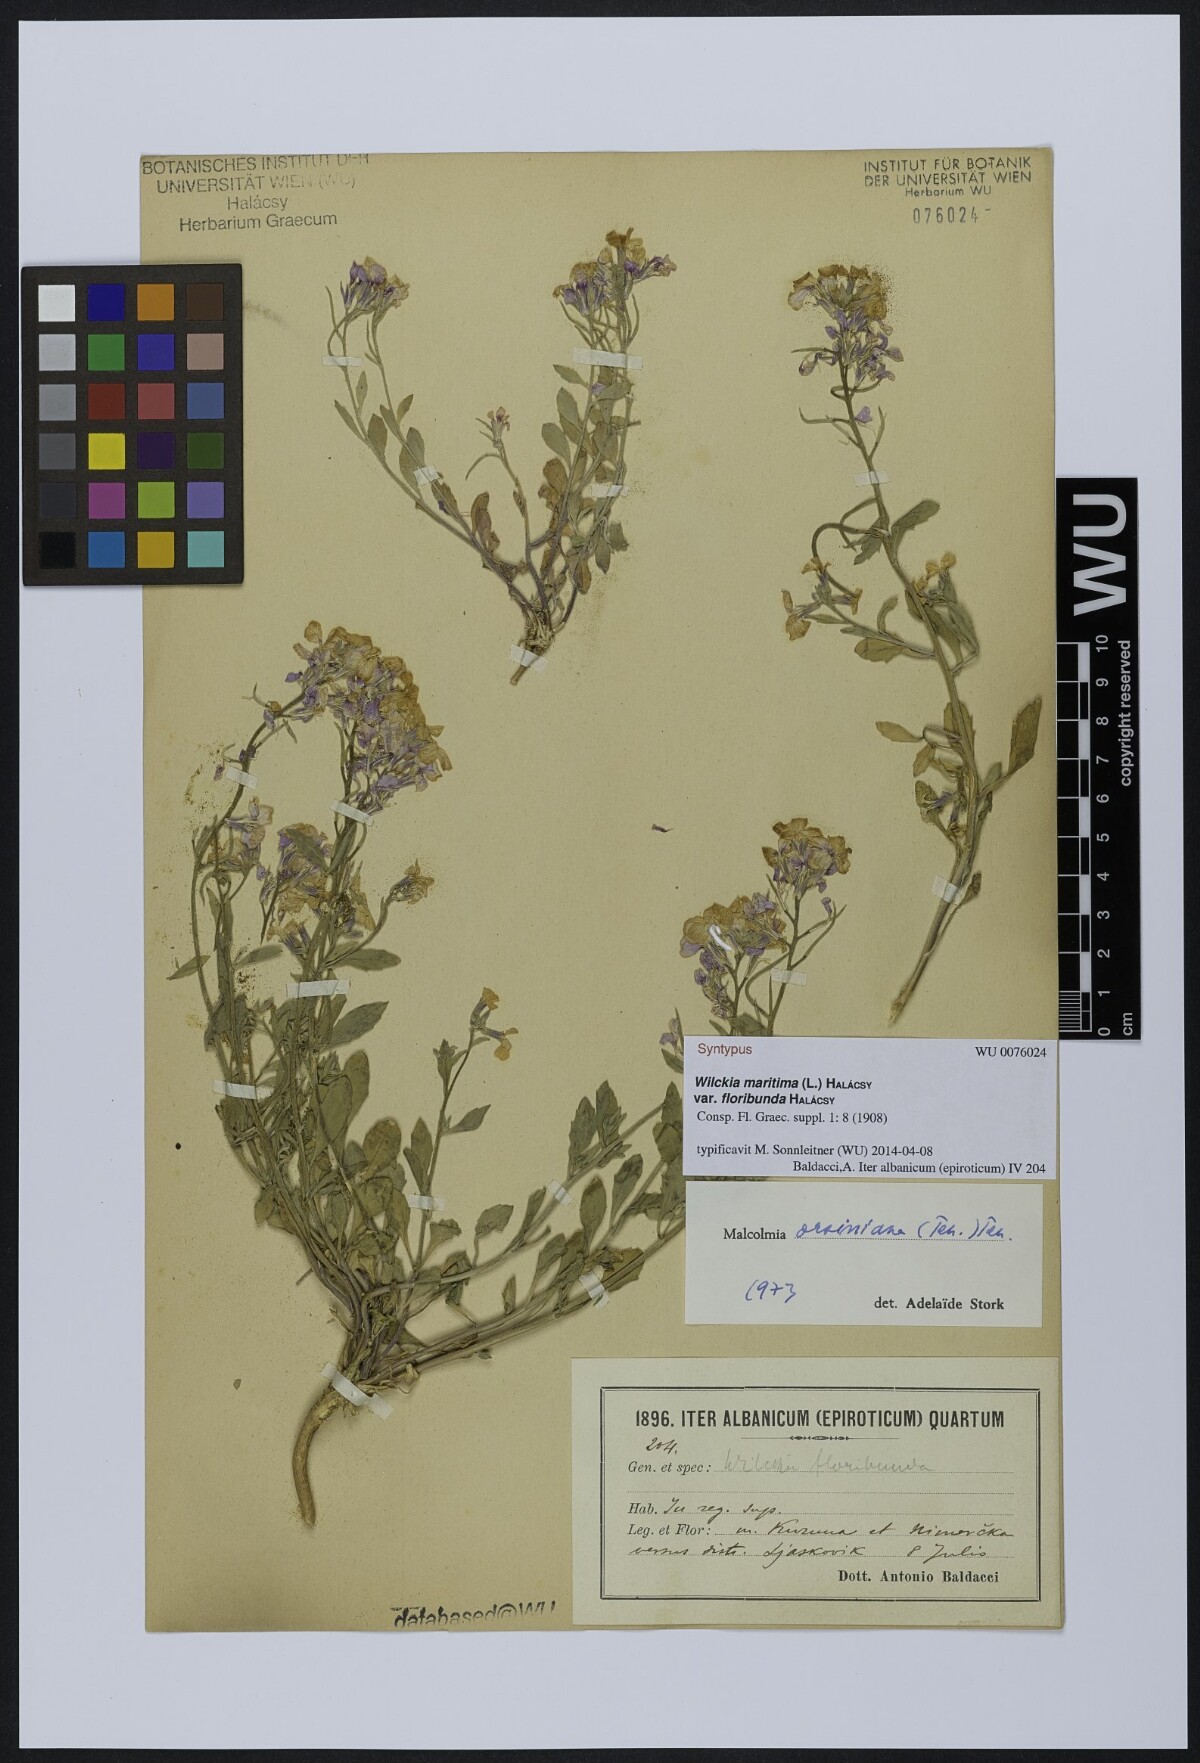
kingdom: Plantae
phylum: Tracheophyta
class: Magnoliopsida
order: Brassicales
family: Brassicaceae
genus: Malcolmia
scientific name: Malcolmia orsiniana
